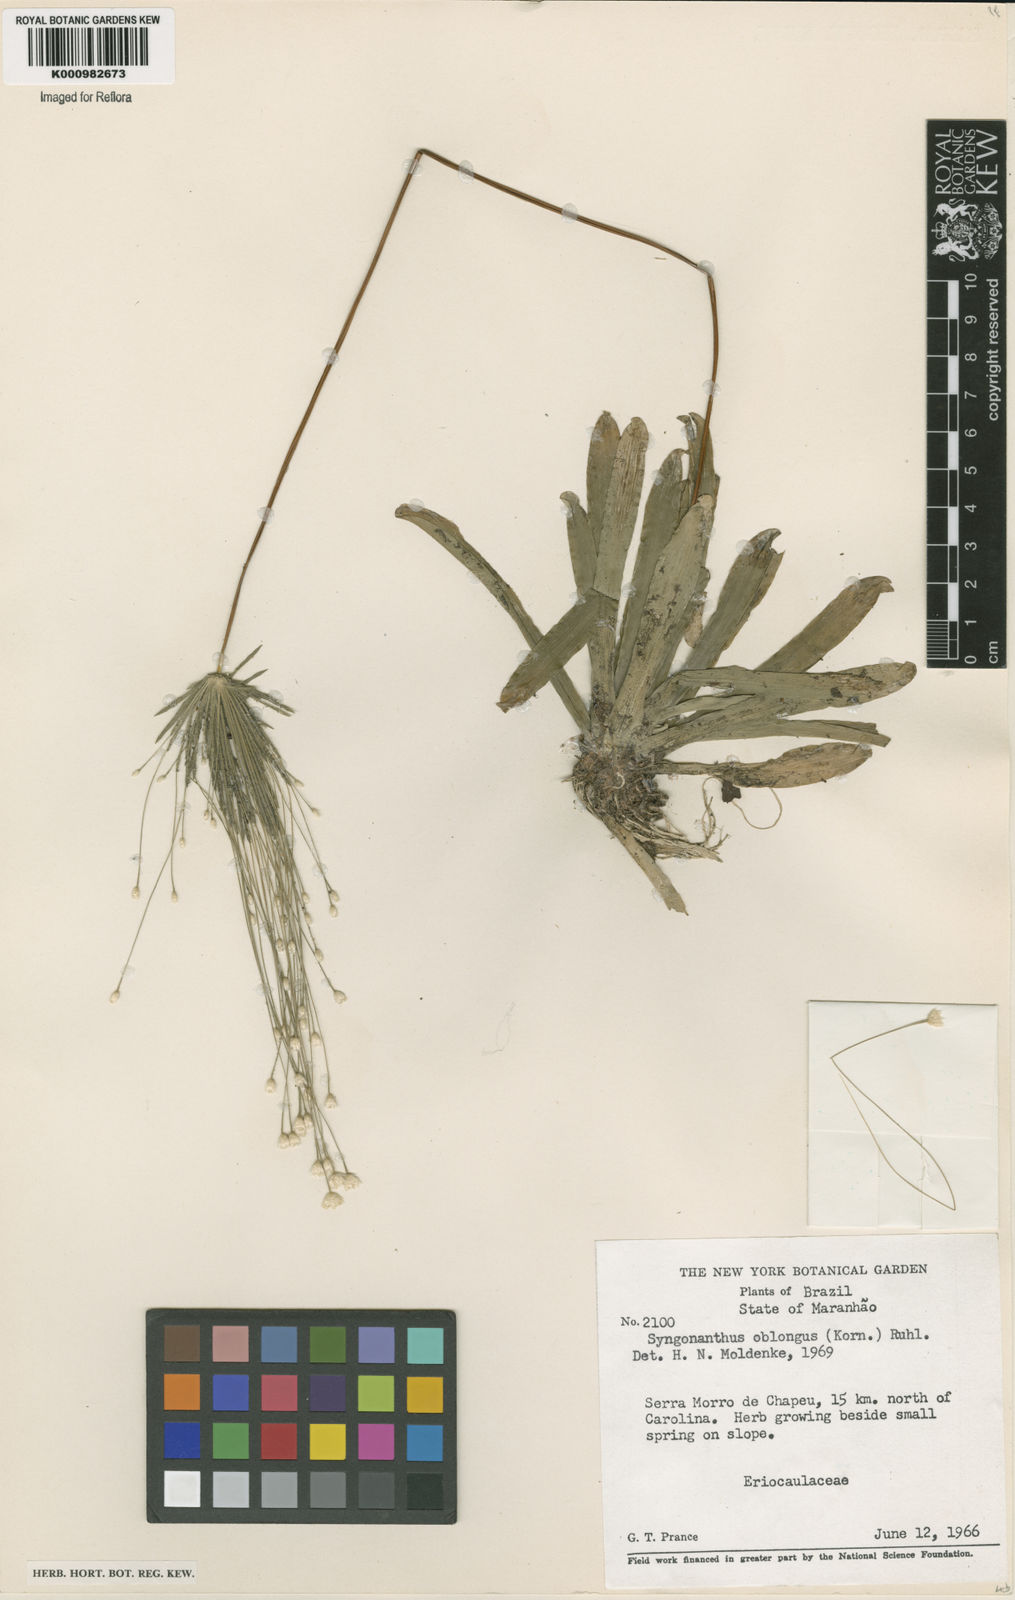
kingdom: Plantae
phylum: Tracheophyta
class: Liliopsida
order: Poales
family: Eriocaulaceae
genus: Syngonanthus
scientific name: Syngonanthus
